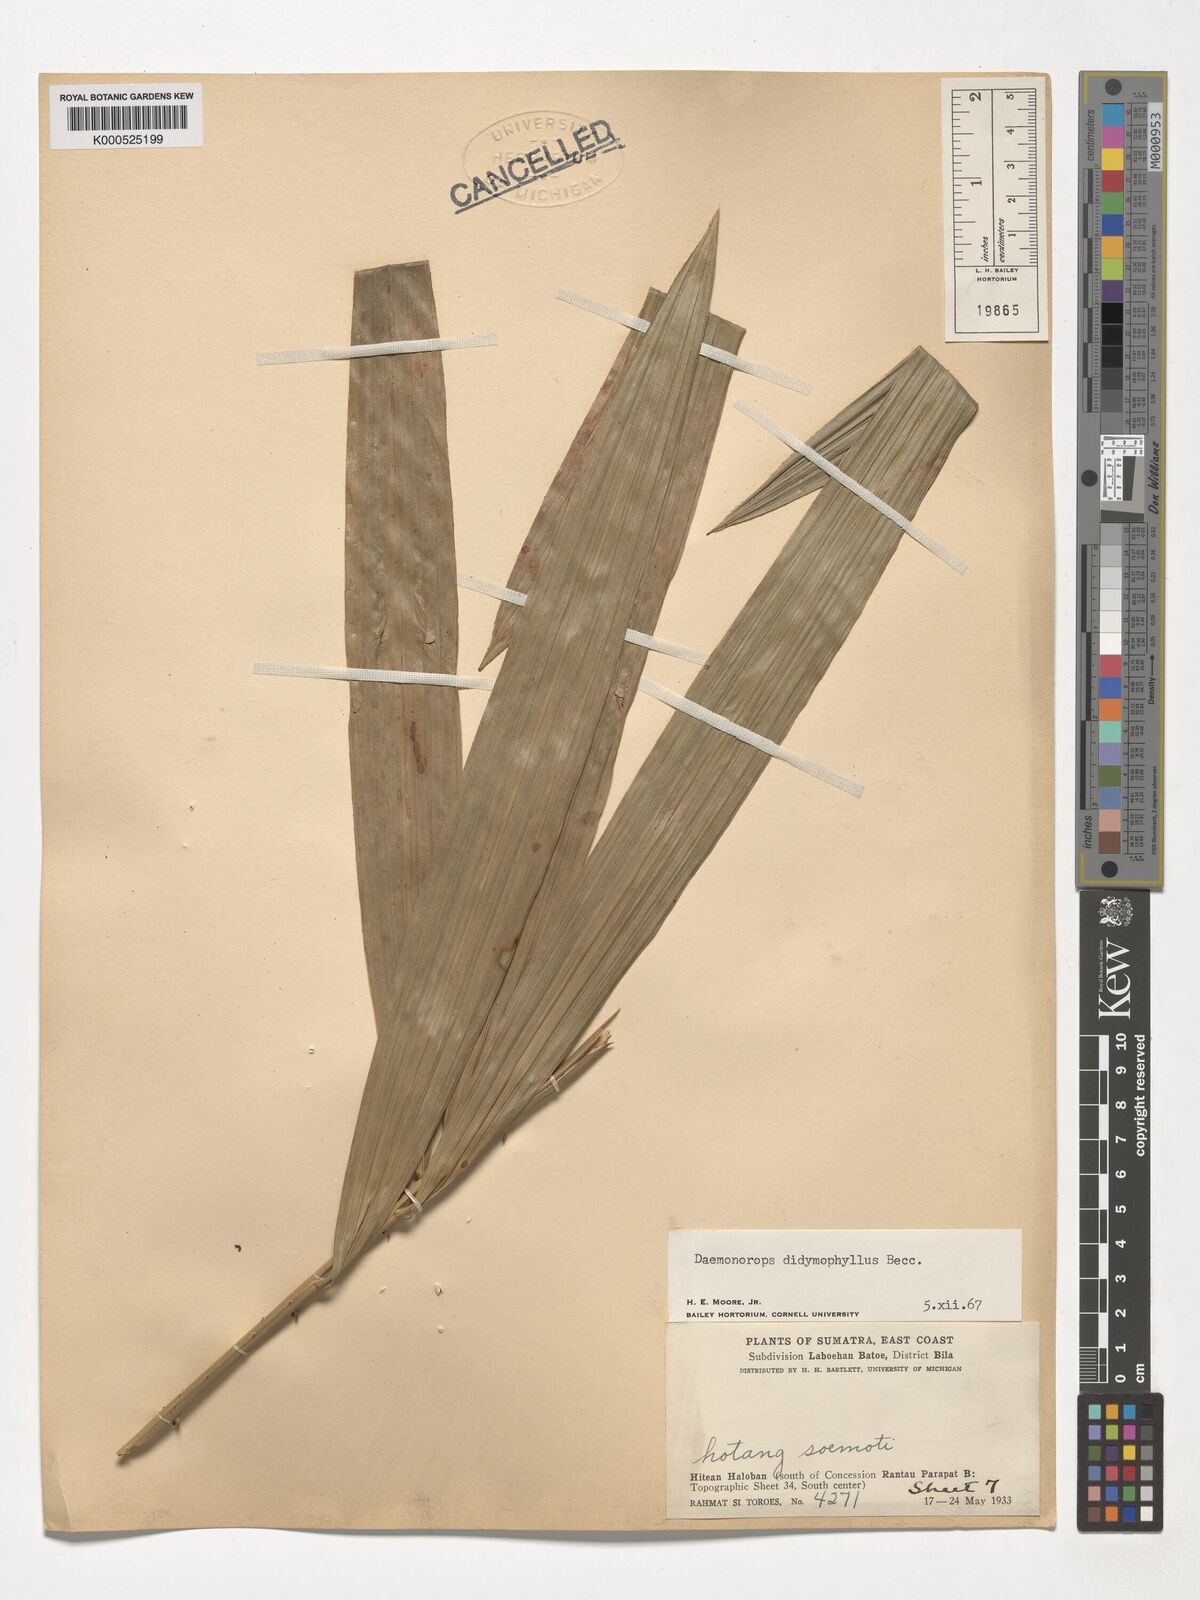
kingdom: Plantae
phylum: Tracheophyta
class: Liliopsida
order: Arecales
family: Arecaceae
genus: Calamus
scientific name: Calamus gracilipes
